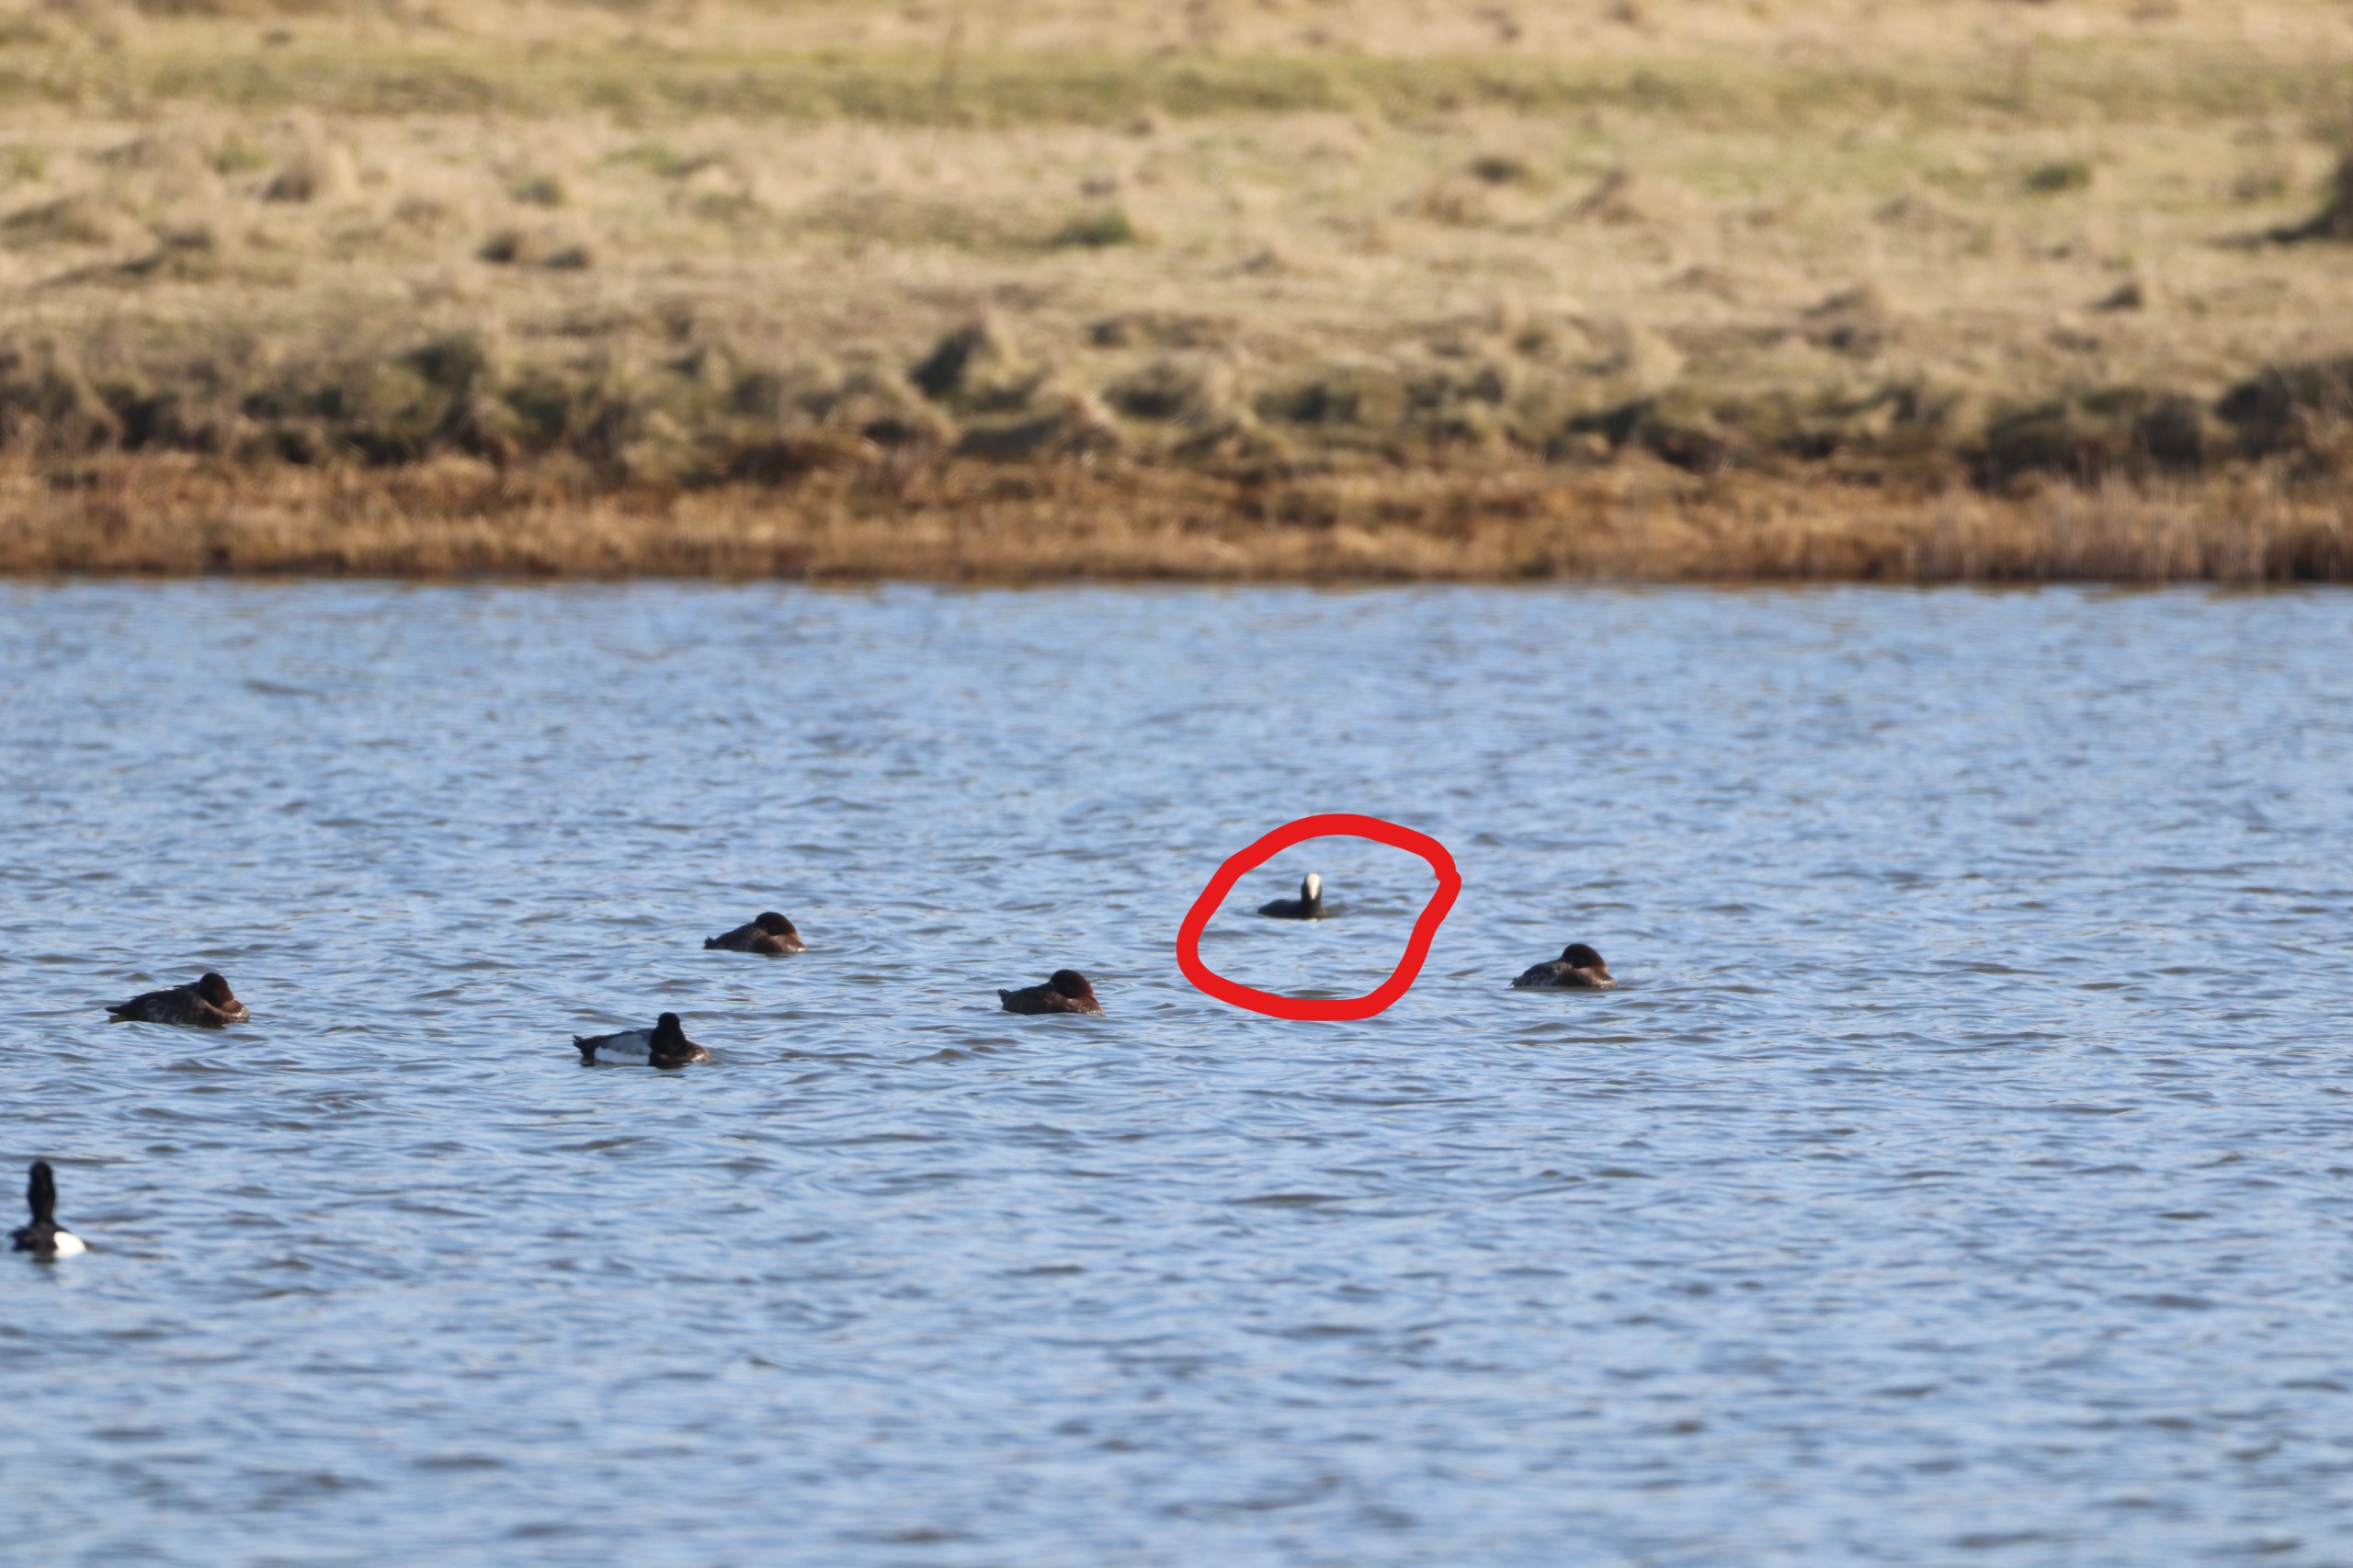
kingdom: Animalia
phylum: Chordata
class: Aves
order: Gruiformes
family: Rallidae
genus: Fulica
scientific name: Fulica atra
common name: Blishøne
